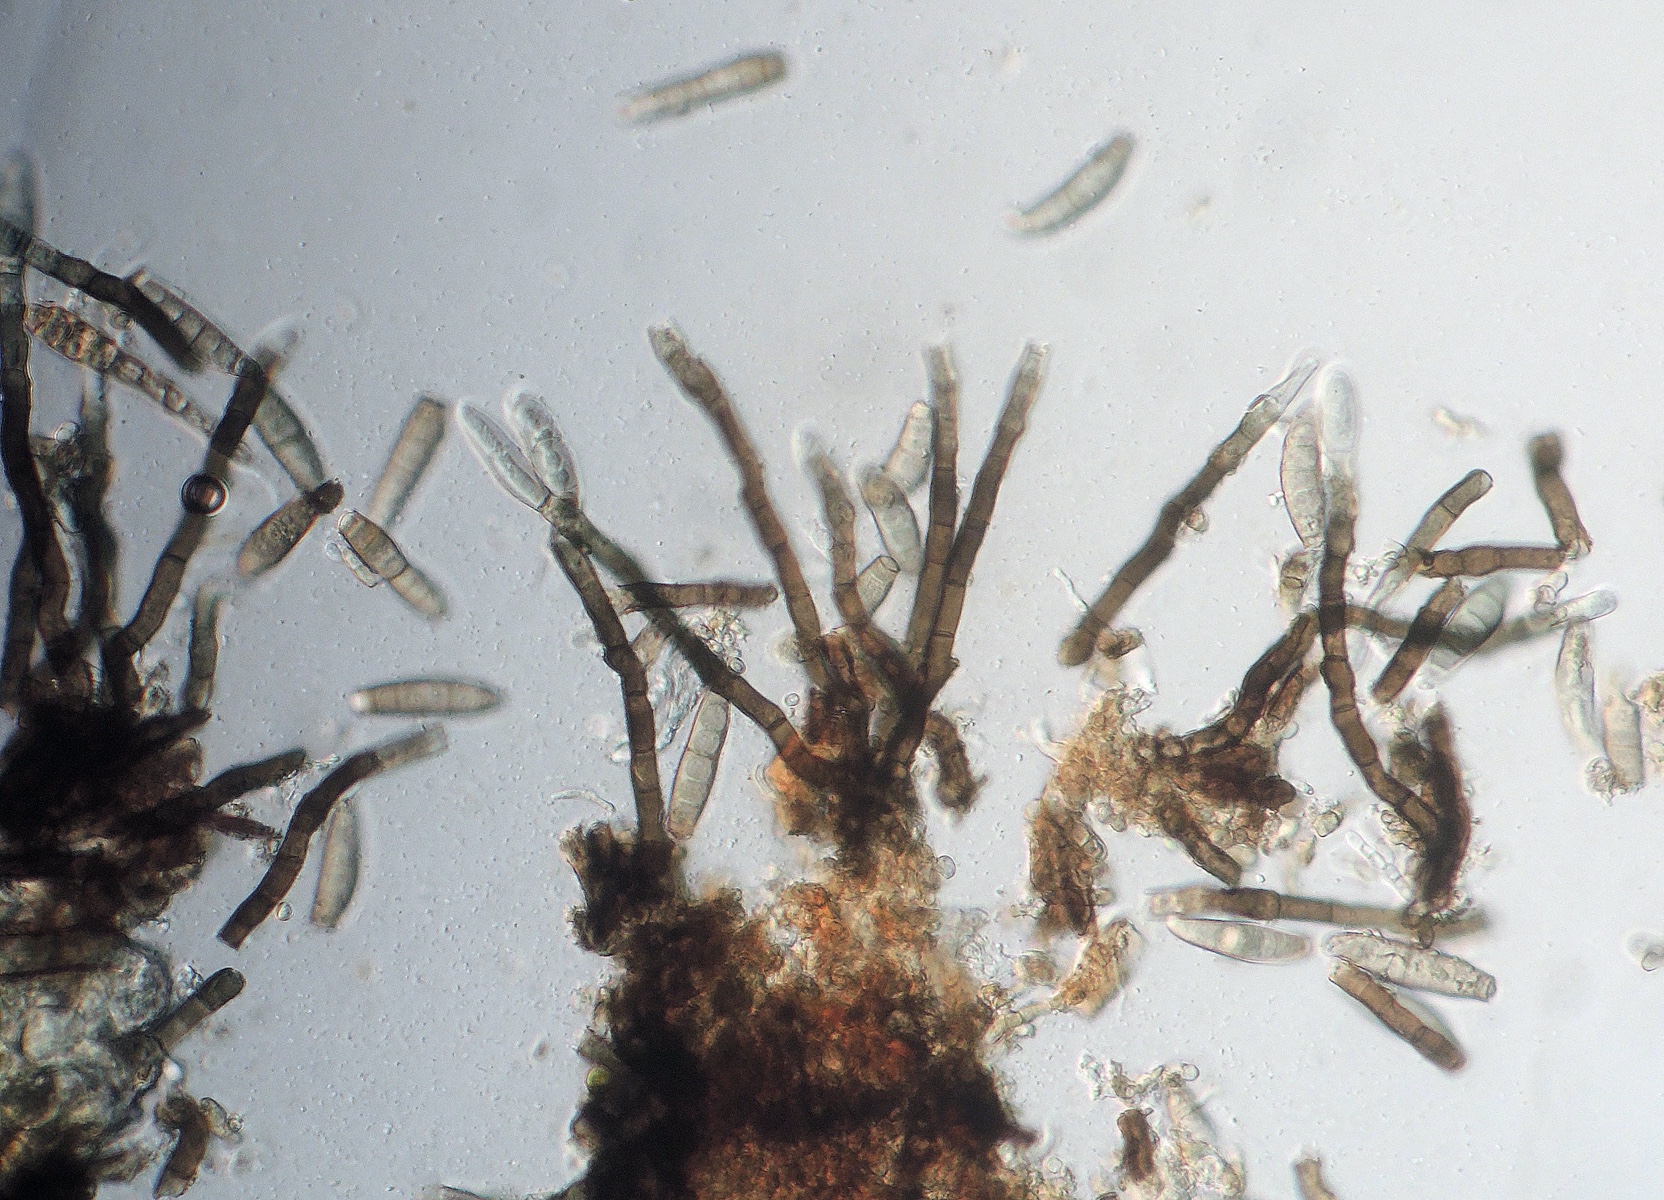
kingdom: Fungi
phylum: Ascomycota
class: Sordariomycetes
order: Chaetosphaeriales
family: Chaetosphaeriaceae
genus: Ellisembia
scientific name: Ellisembia coronata
